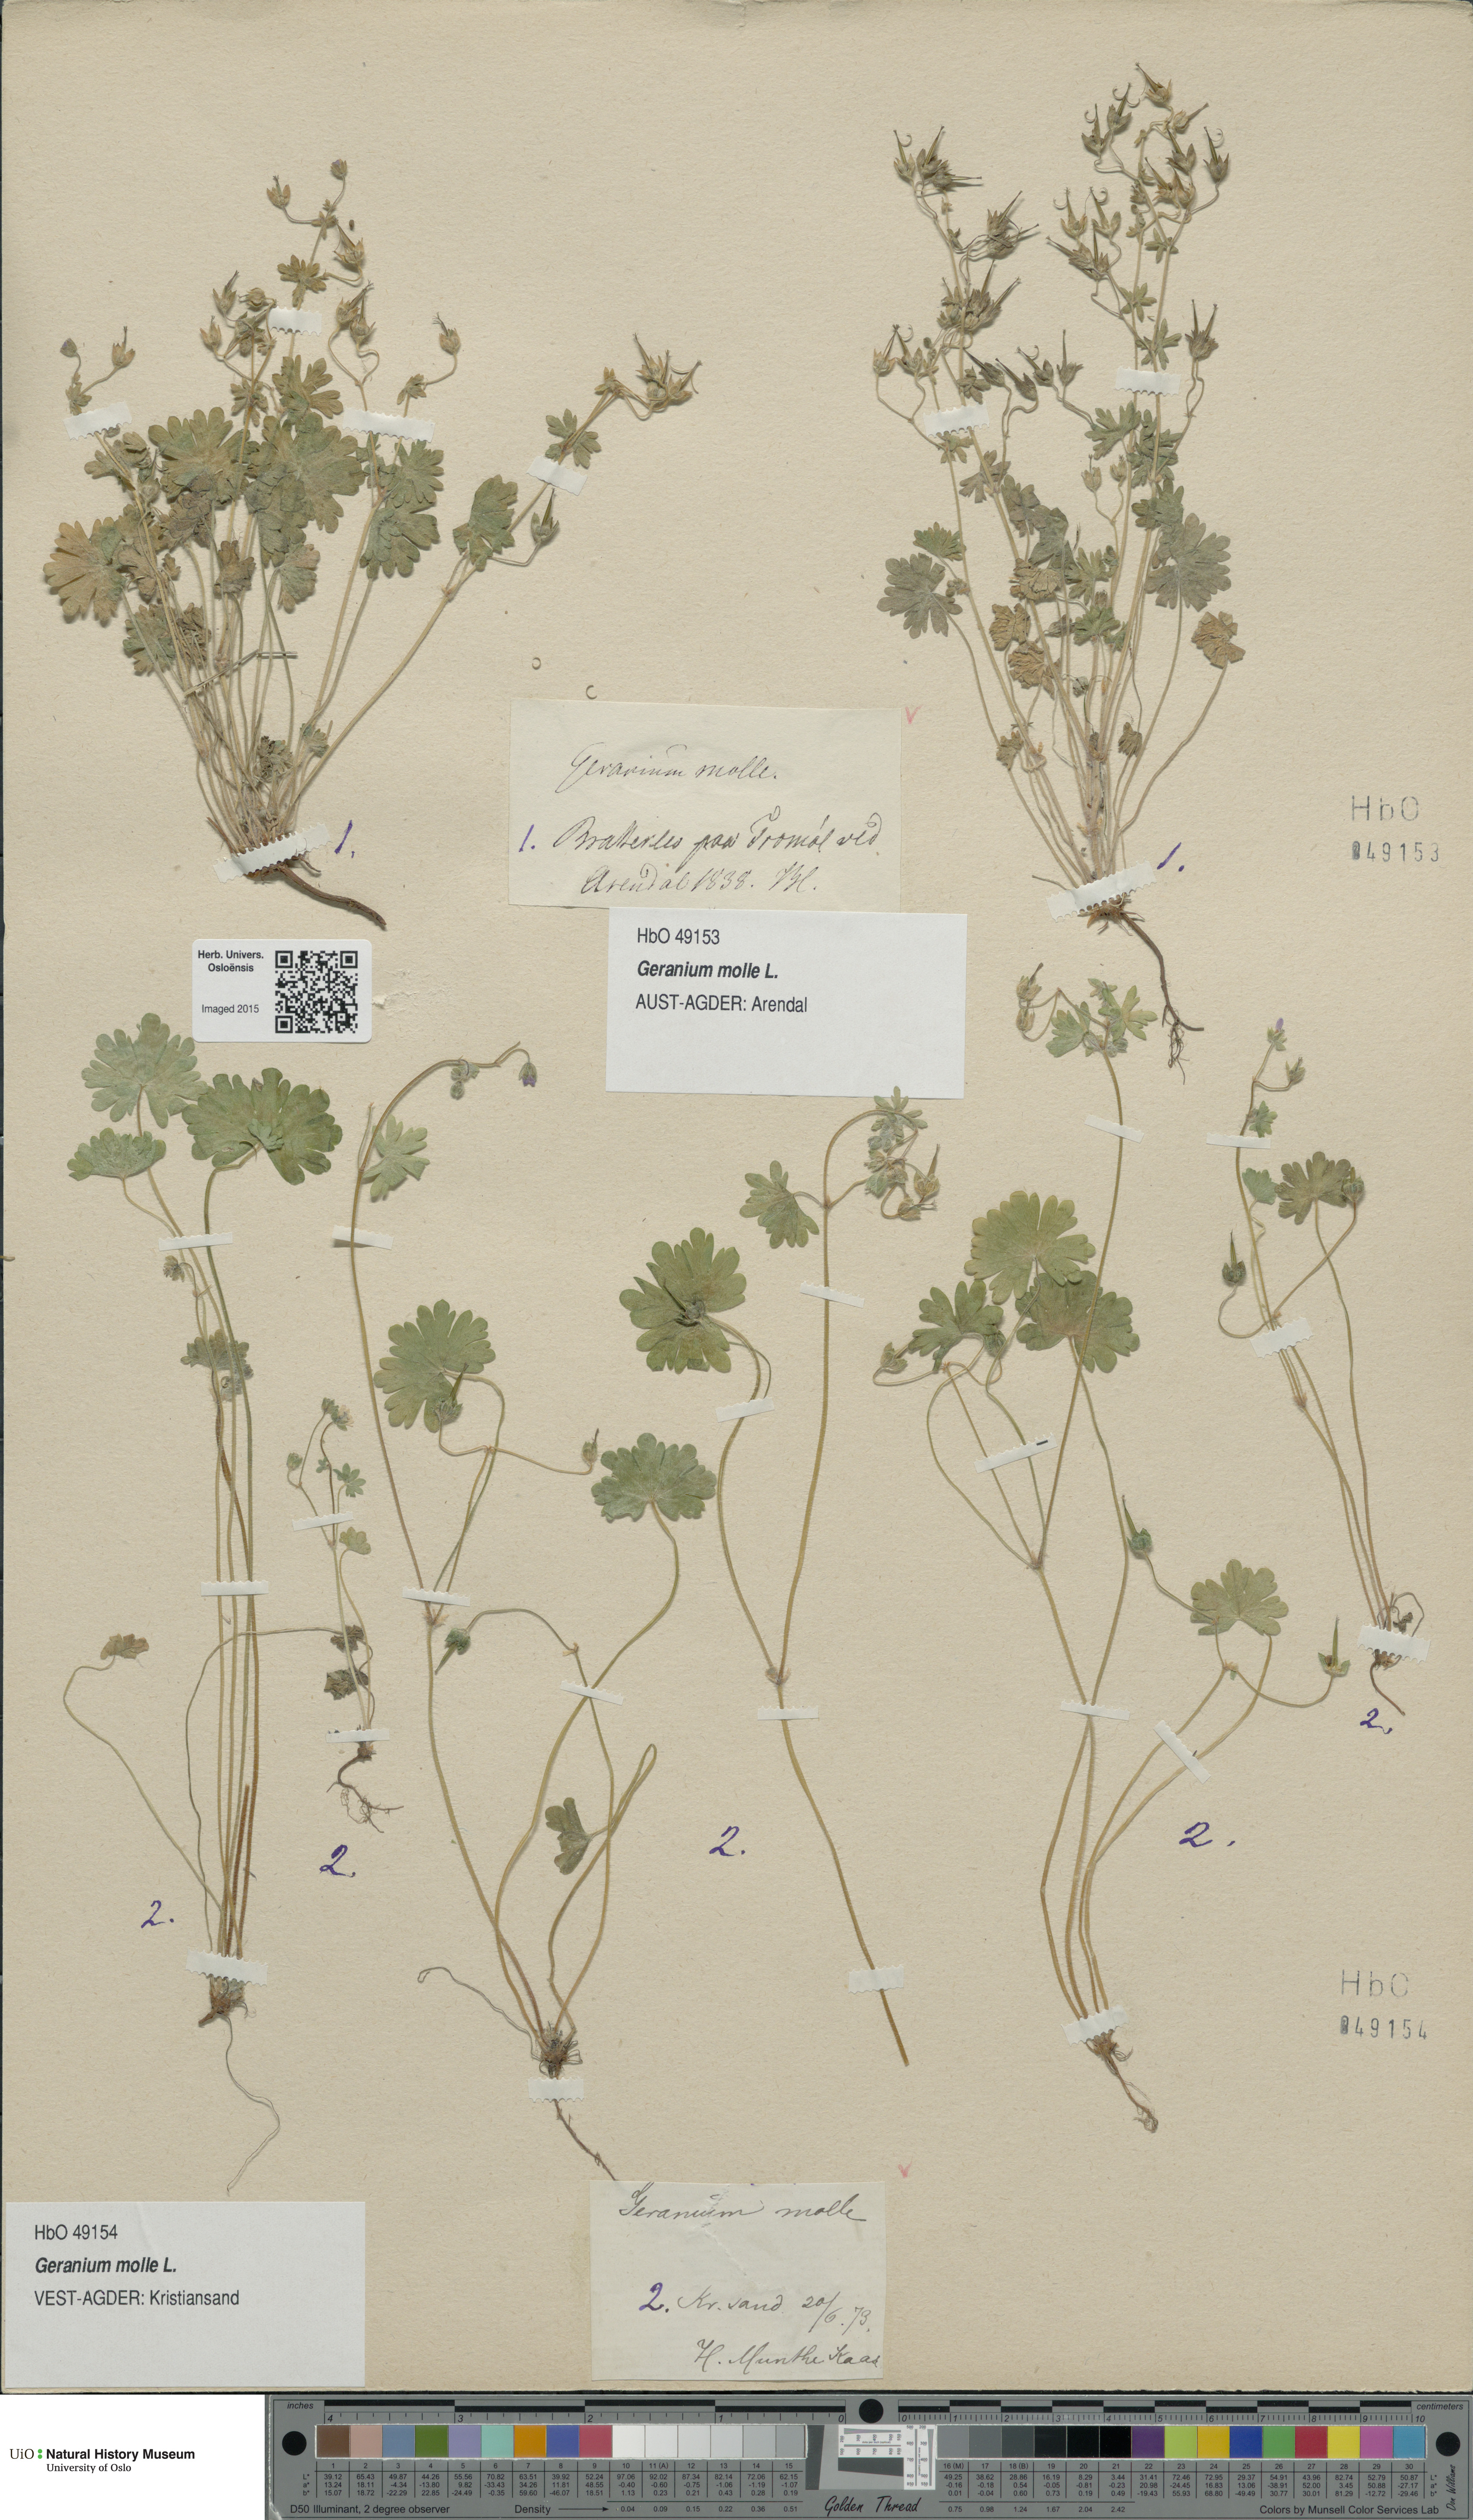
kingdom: Plantae
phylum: Tracheophyta
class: Magnoliopsida
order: Geraniales
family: Geraniaceae
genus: Geranium
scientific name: Geranium molle
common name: Dove's-foot crane's-bill
